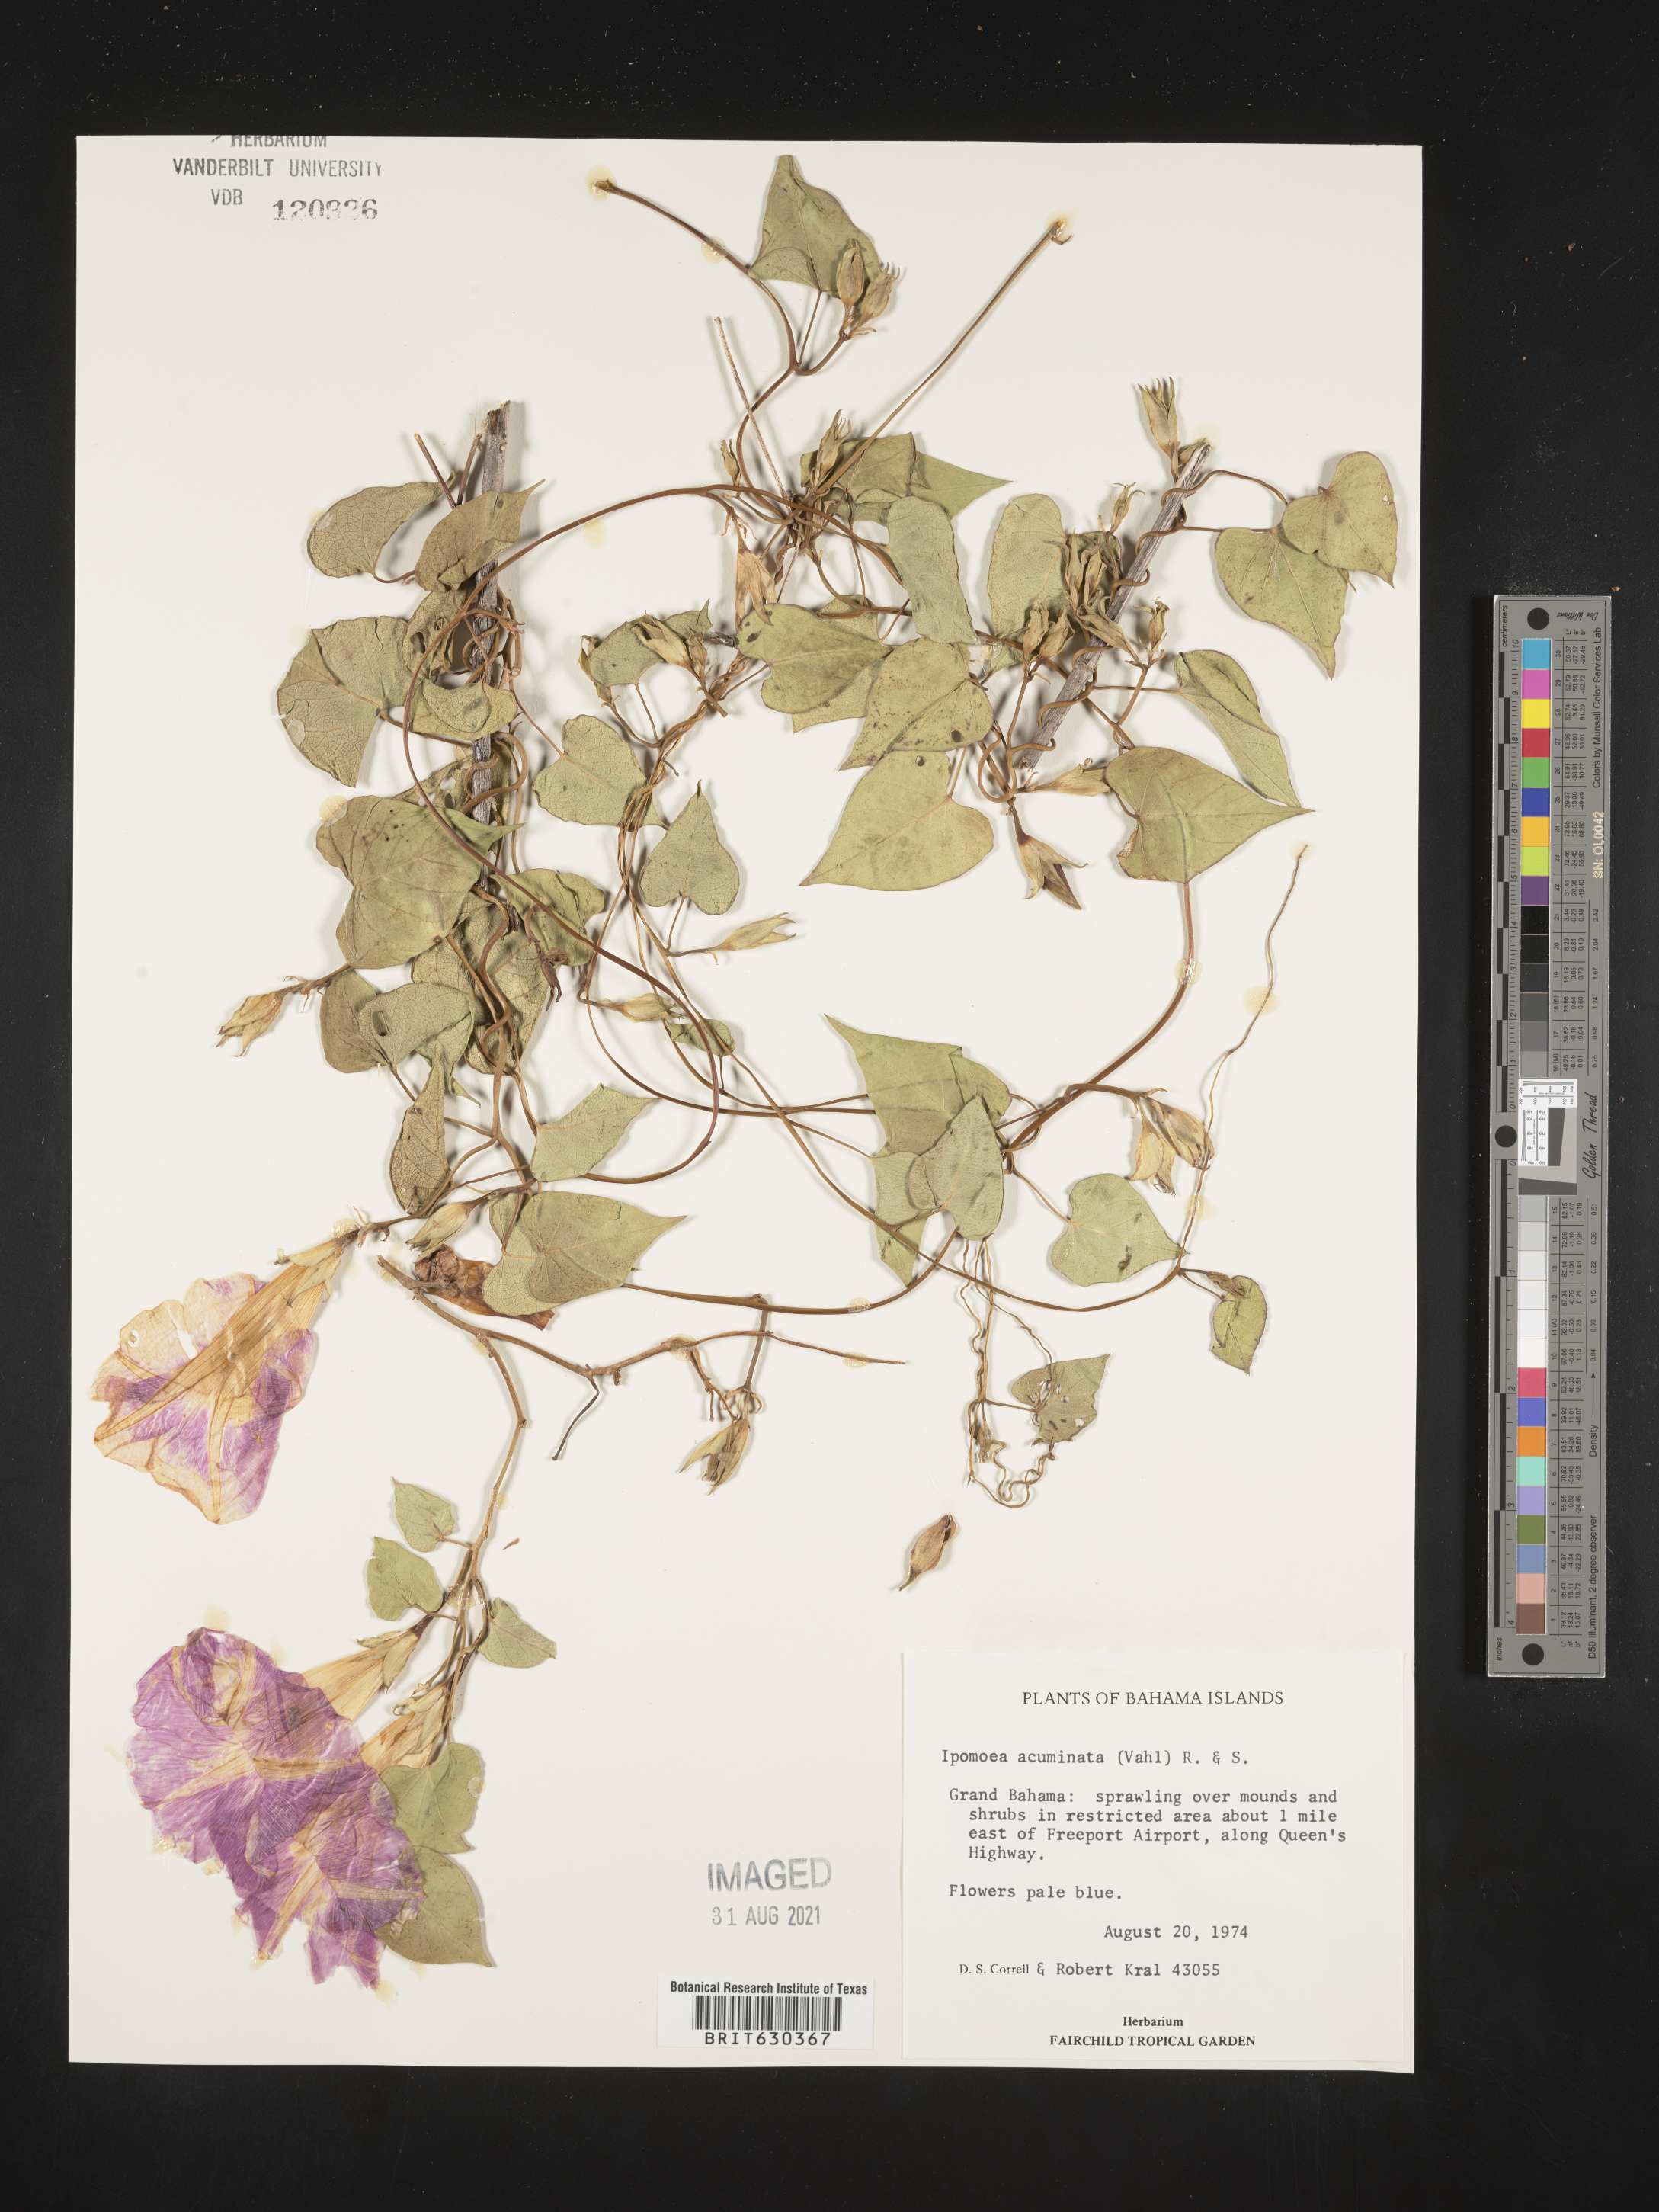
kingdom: Plantae
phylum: Tracheophyta
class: Magnoliopsida
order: Solanales
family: Convolvulaceae
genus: Ipomoea
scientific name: Ipomoea coccinea
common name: Red morning-glory
